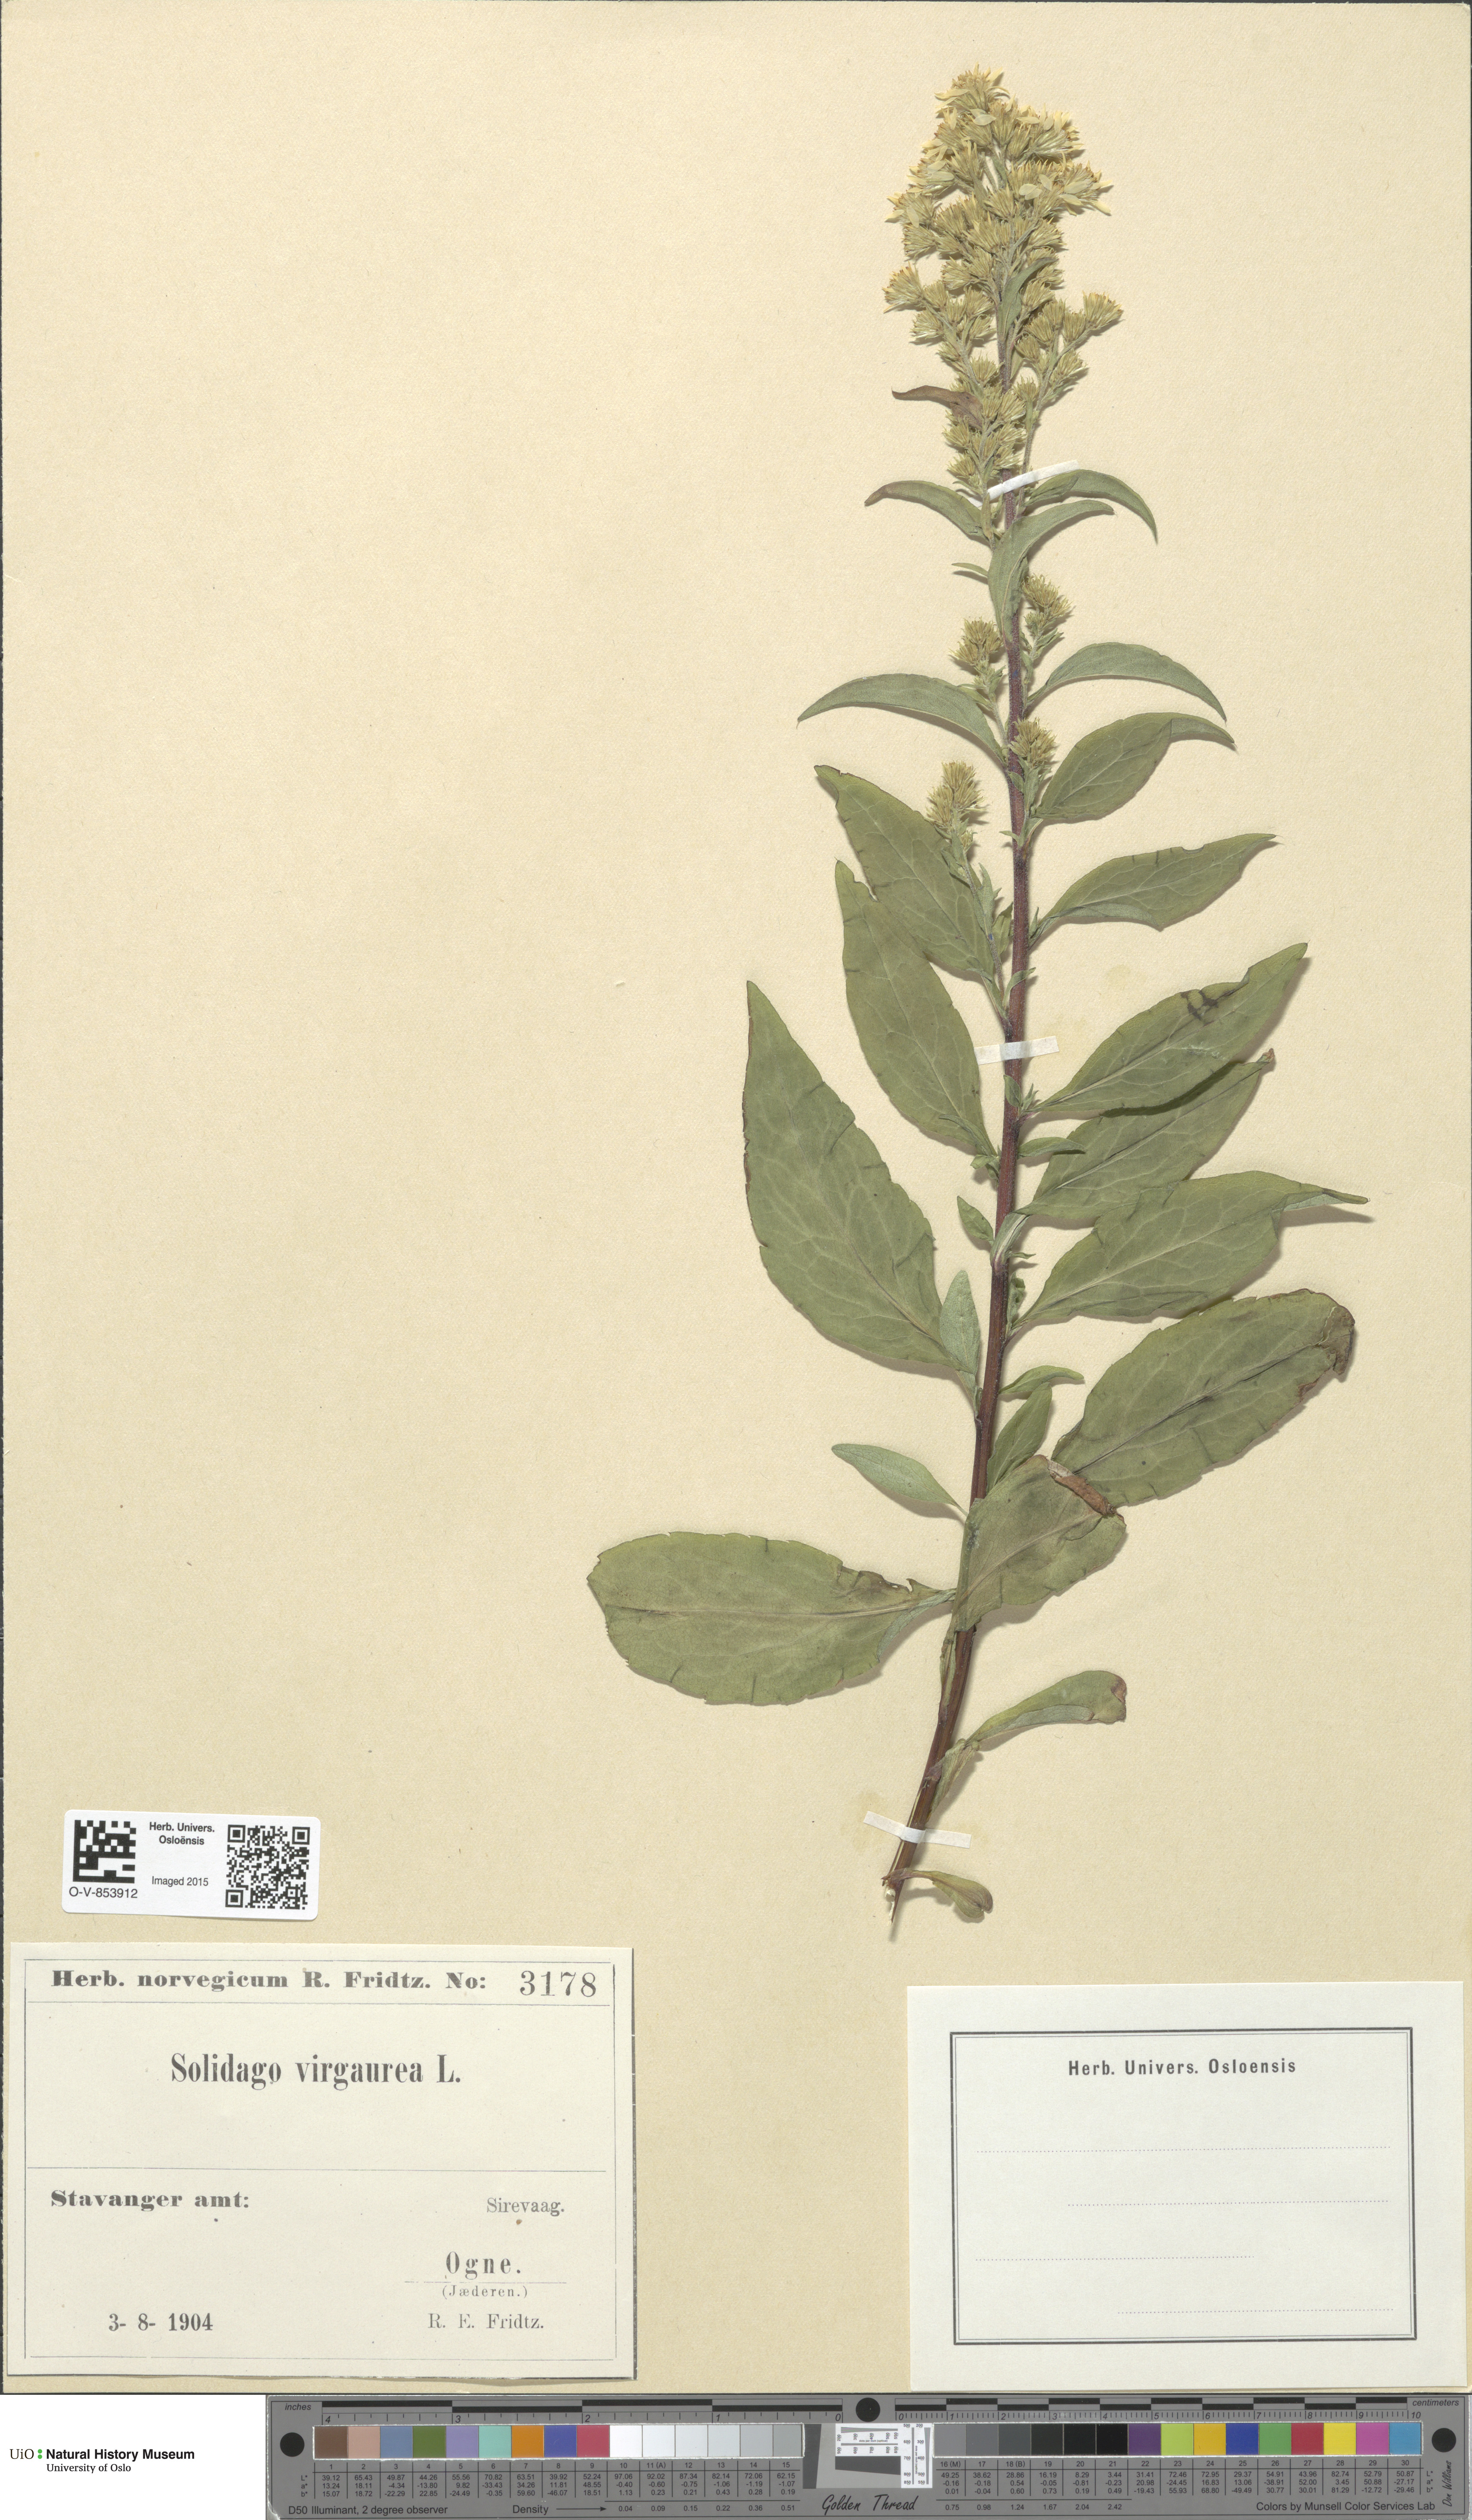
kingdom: Plantae
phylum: Tracheophyta
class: Magnoliopsida
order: Asterales
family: Asteraceae
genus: Solidago
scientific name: Solidago virgaurea
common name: Goldenrod
